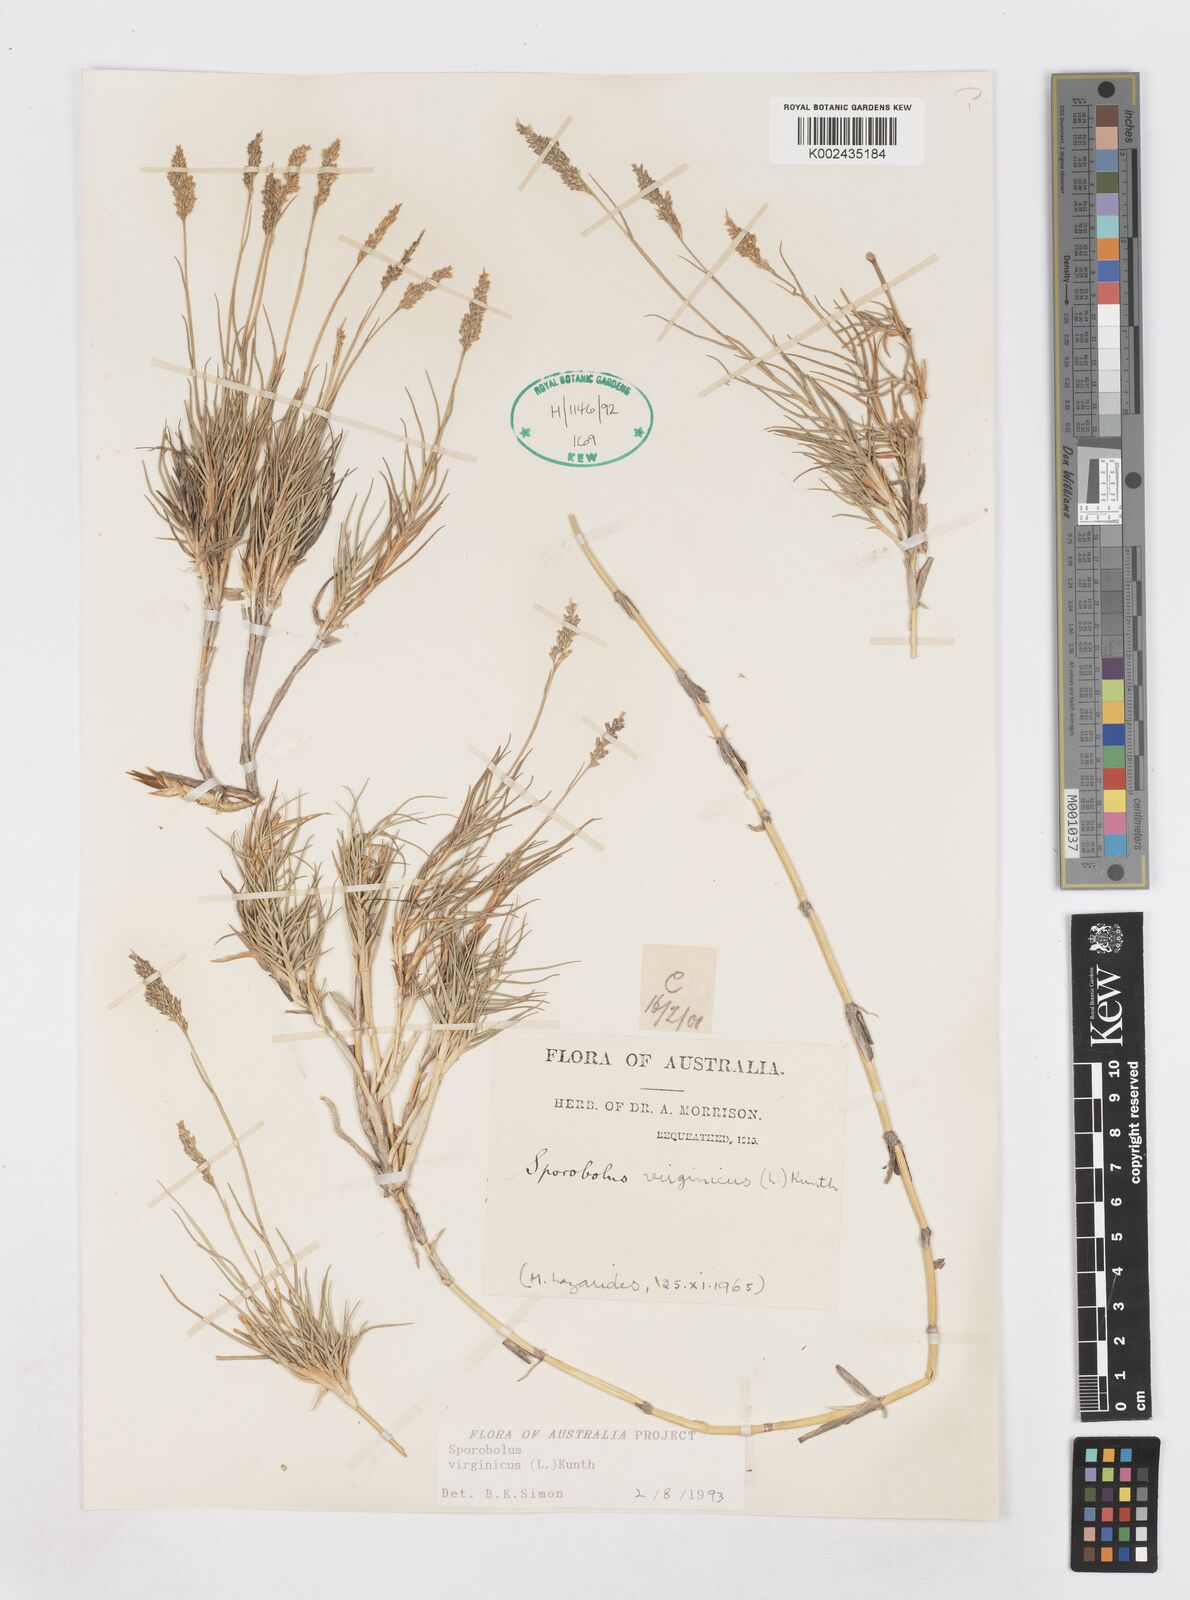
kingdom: Plantae
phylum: Tracheophyta
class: Liliopsida
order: Poales
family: Poaceae
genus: Sporobolus
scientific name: Sporobolus virginicus
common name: Beach dropseed
